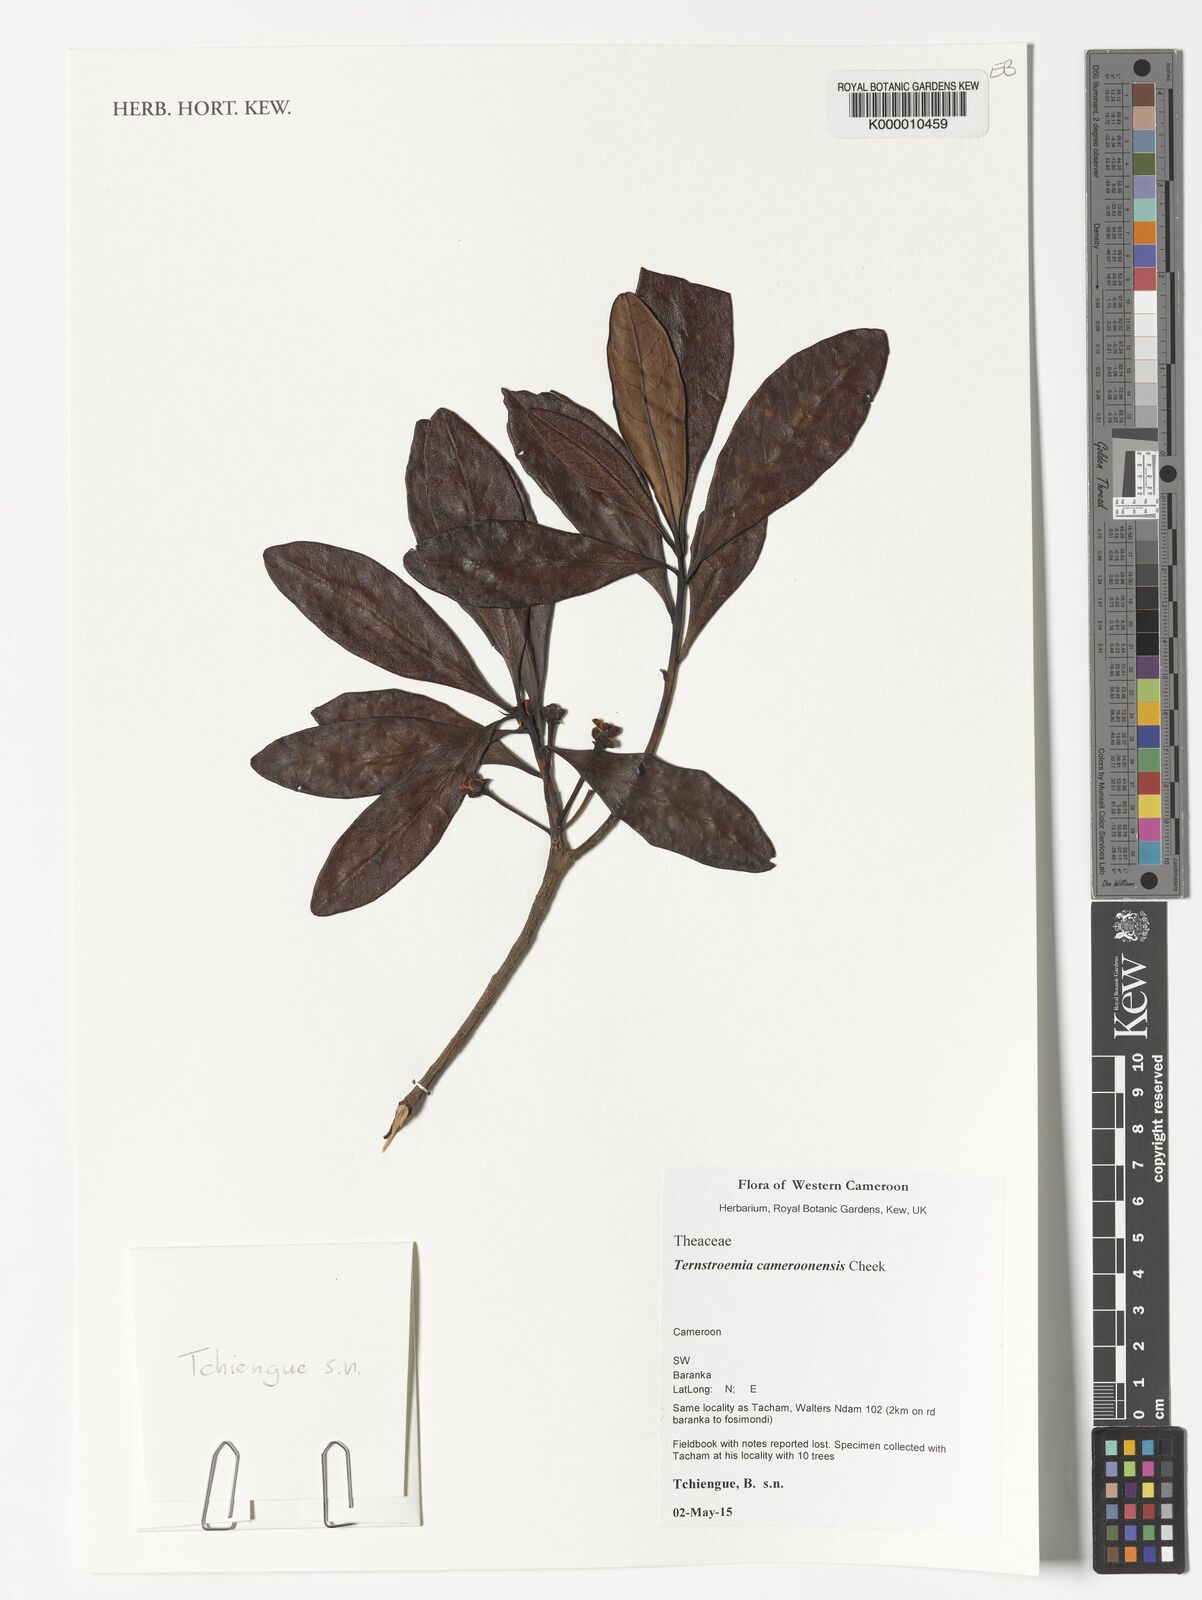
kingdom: Plantae
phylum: Tracheophyta
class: Magnoliopsida
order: Ericales
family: Pentaphylacaceae
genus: Ternstroemia
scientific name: Ternstroemia cameroonensis
